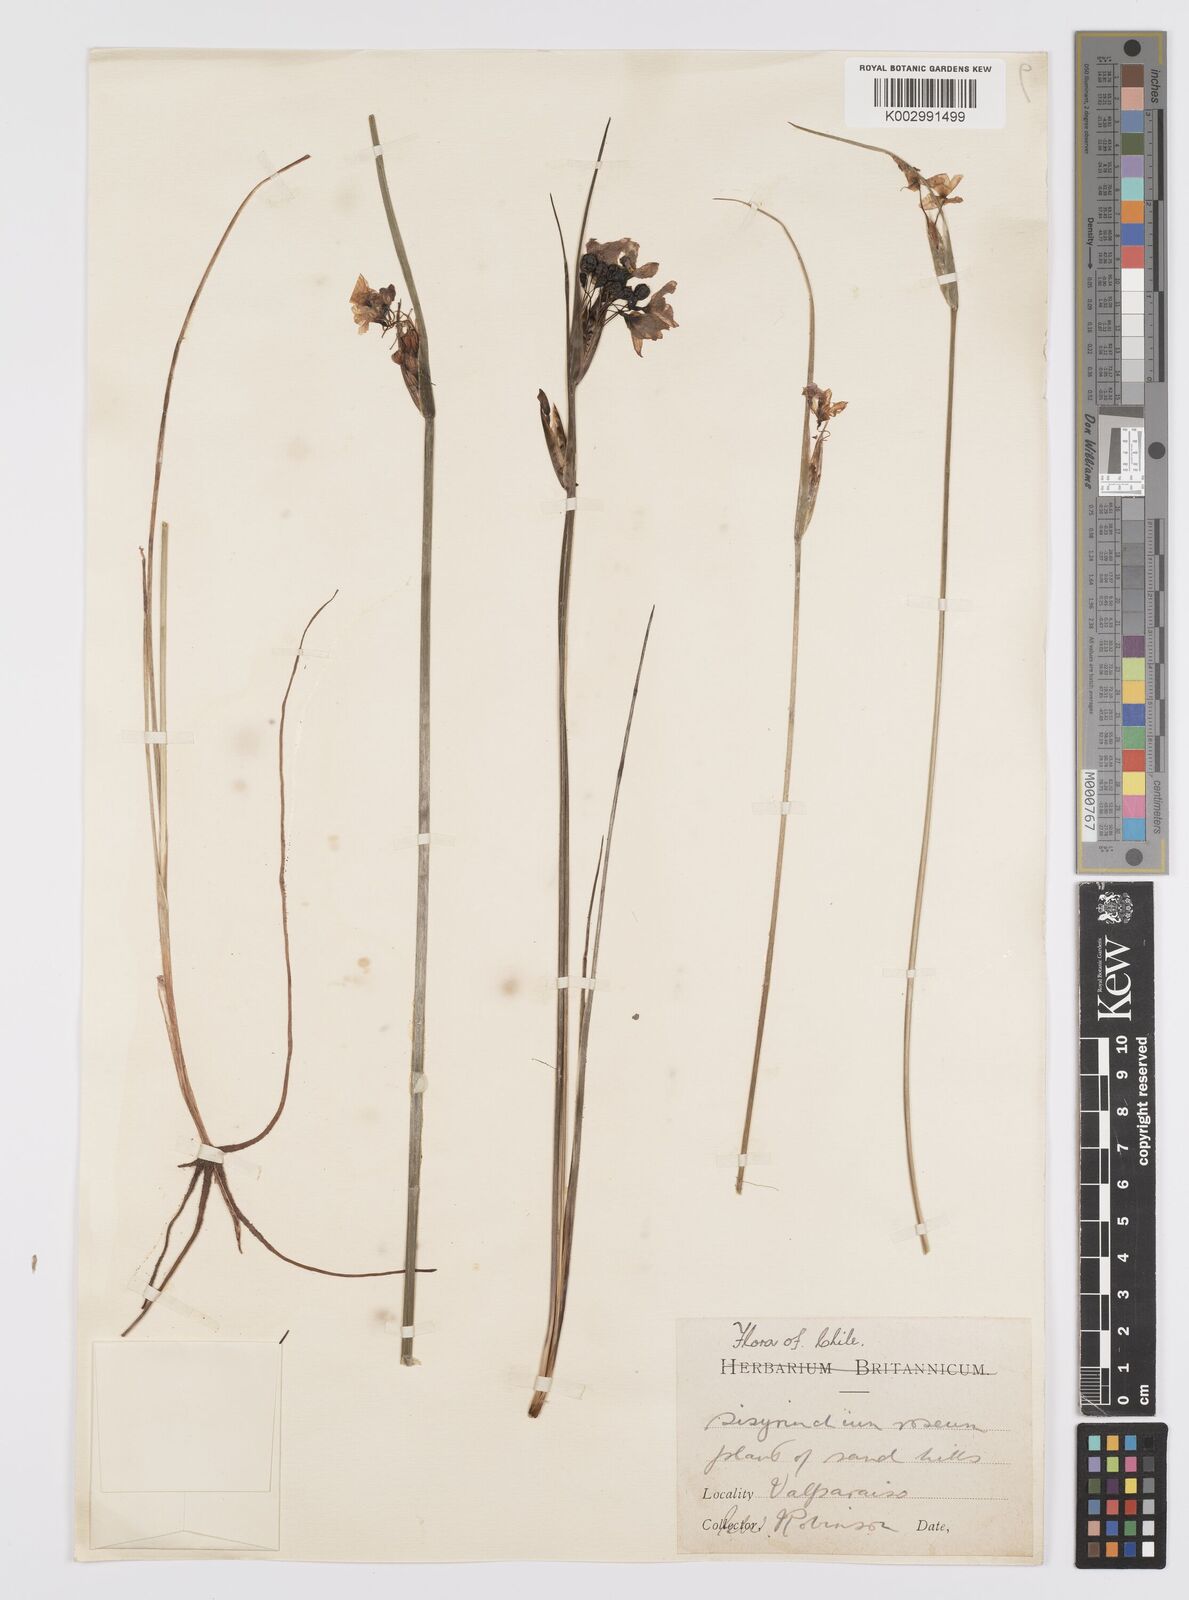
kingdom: Plantae
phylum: Tracheophyta
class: Liliopsida
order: Asparagales
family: Iridaceae
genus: Olsynium
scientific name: Olsynium junceum
